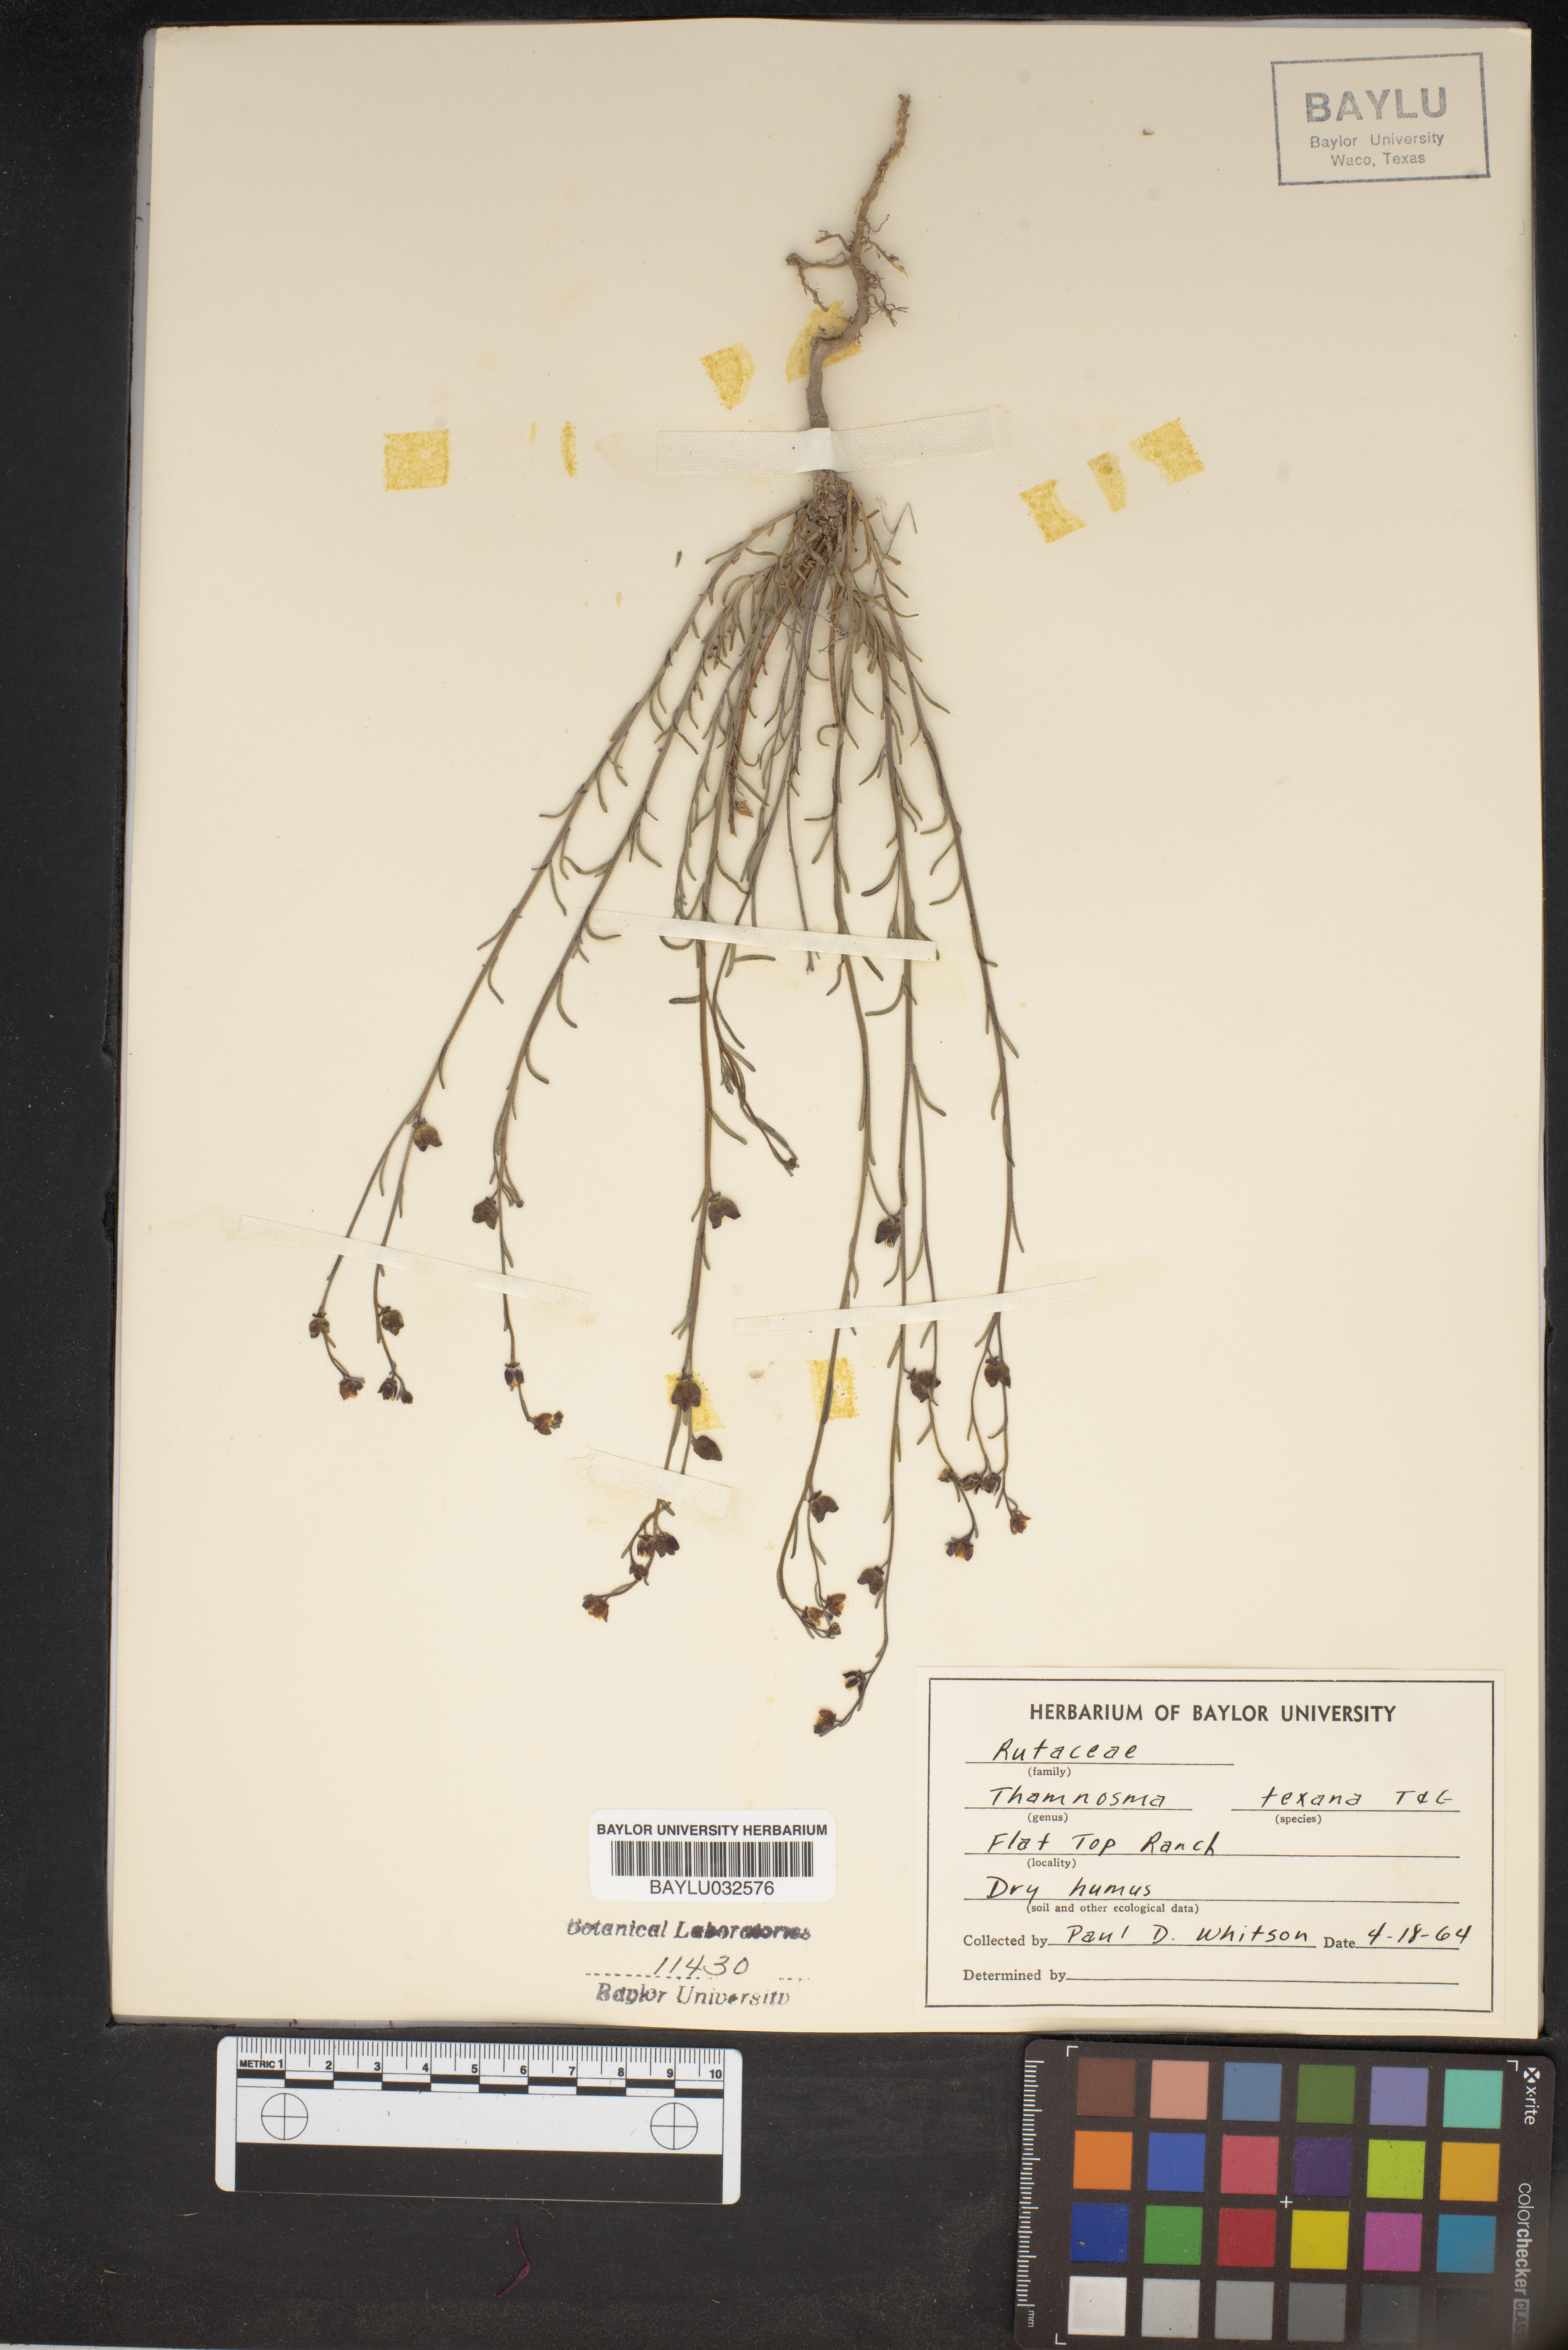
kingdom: Plantae
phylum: Tracheophyta
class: Magnoliopsida
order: Sapindales
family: Rutaceae
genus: Thamnosma
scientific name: Thamnosma texana
